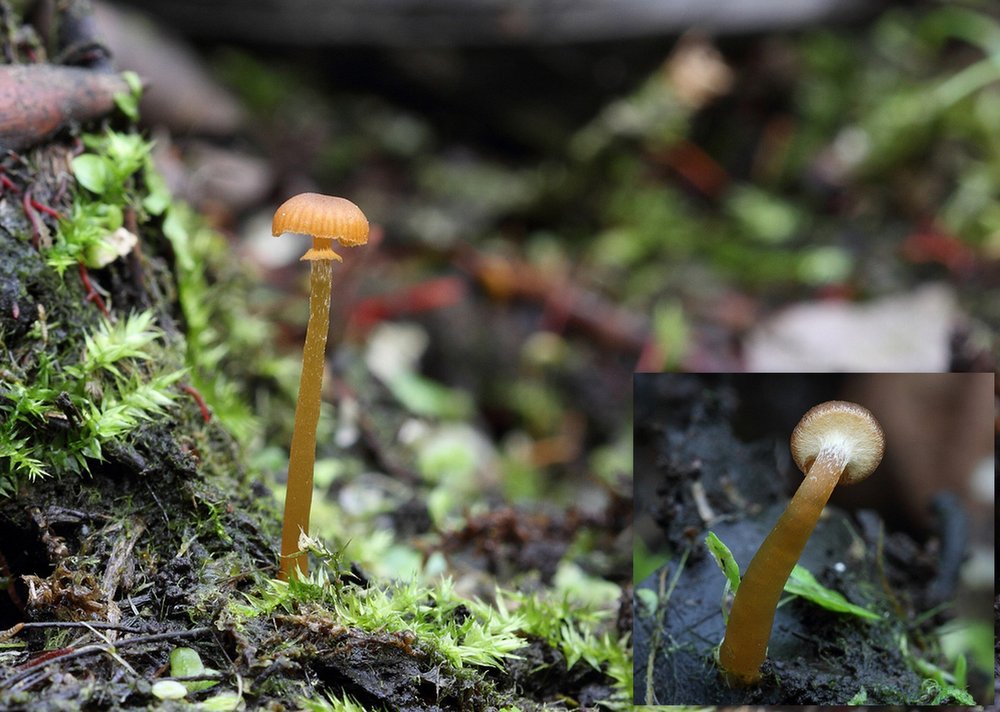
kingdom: Fungi
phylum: Basidiomycota
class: Agaricomycetes
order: Agaricales
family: Hymenogastraceae
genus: Galerina
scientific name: Galerina jaapii
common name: hvidbæltet hjelmhat
